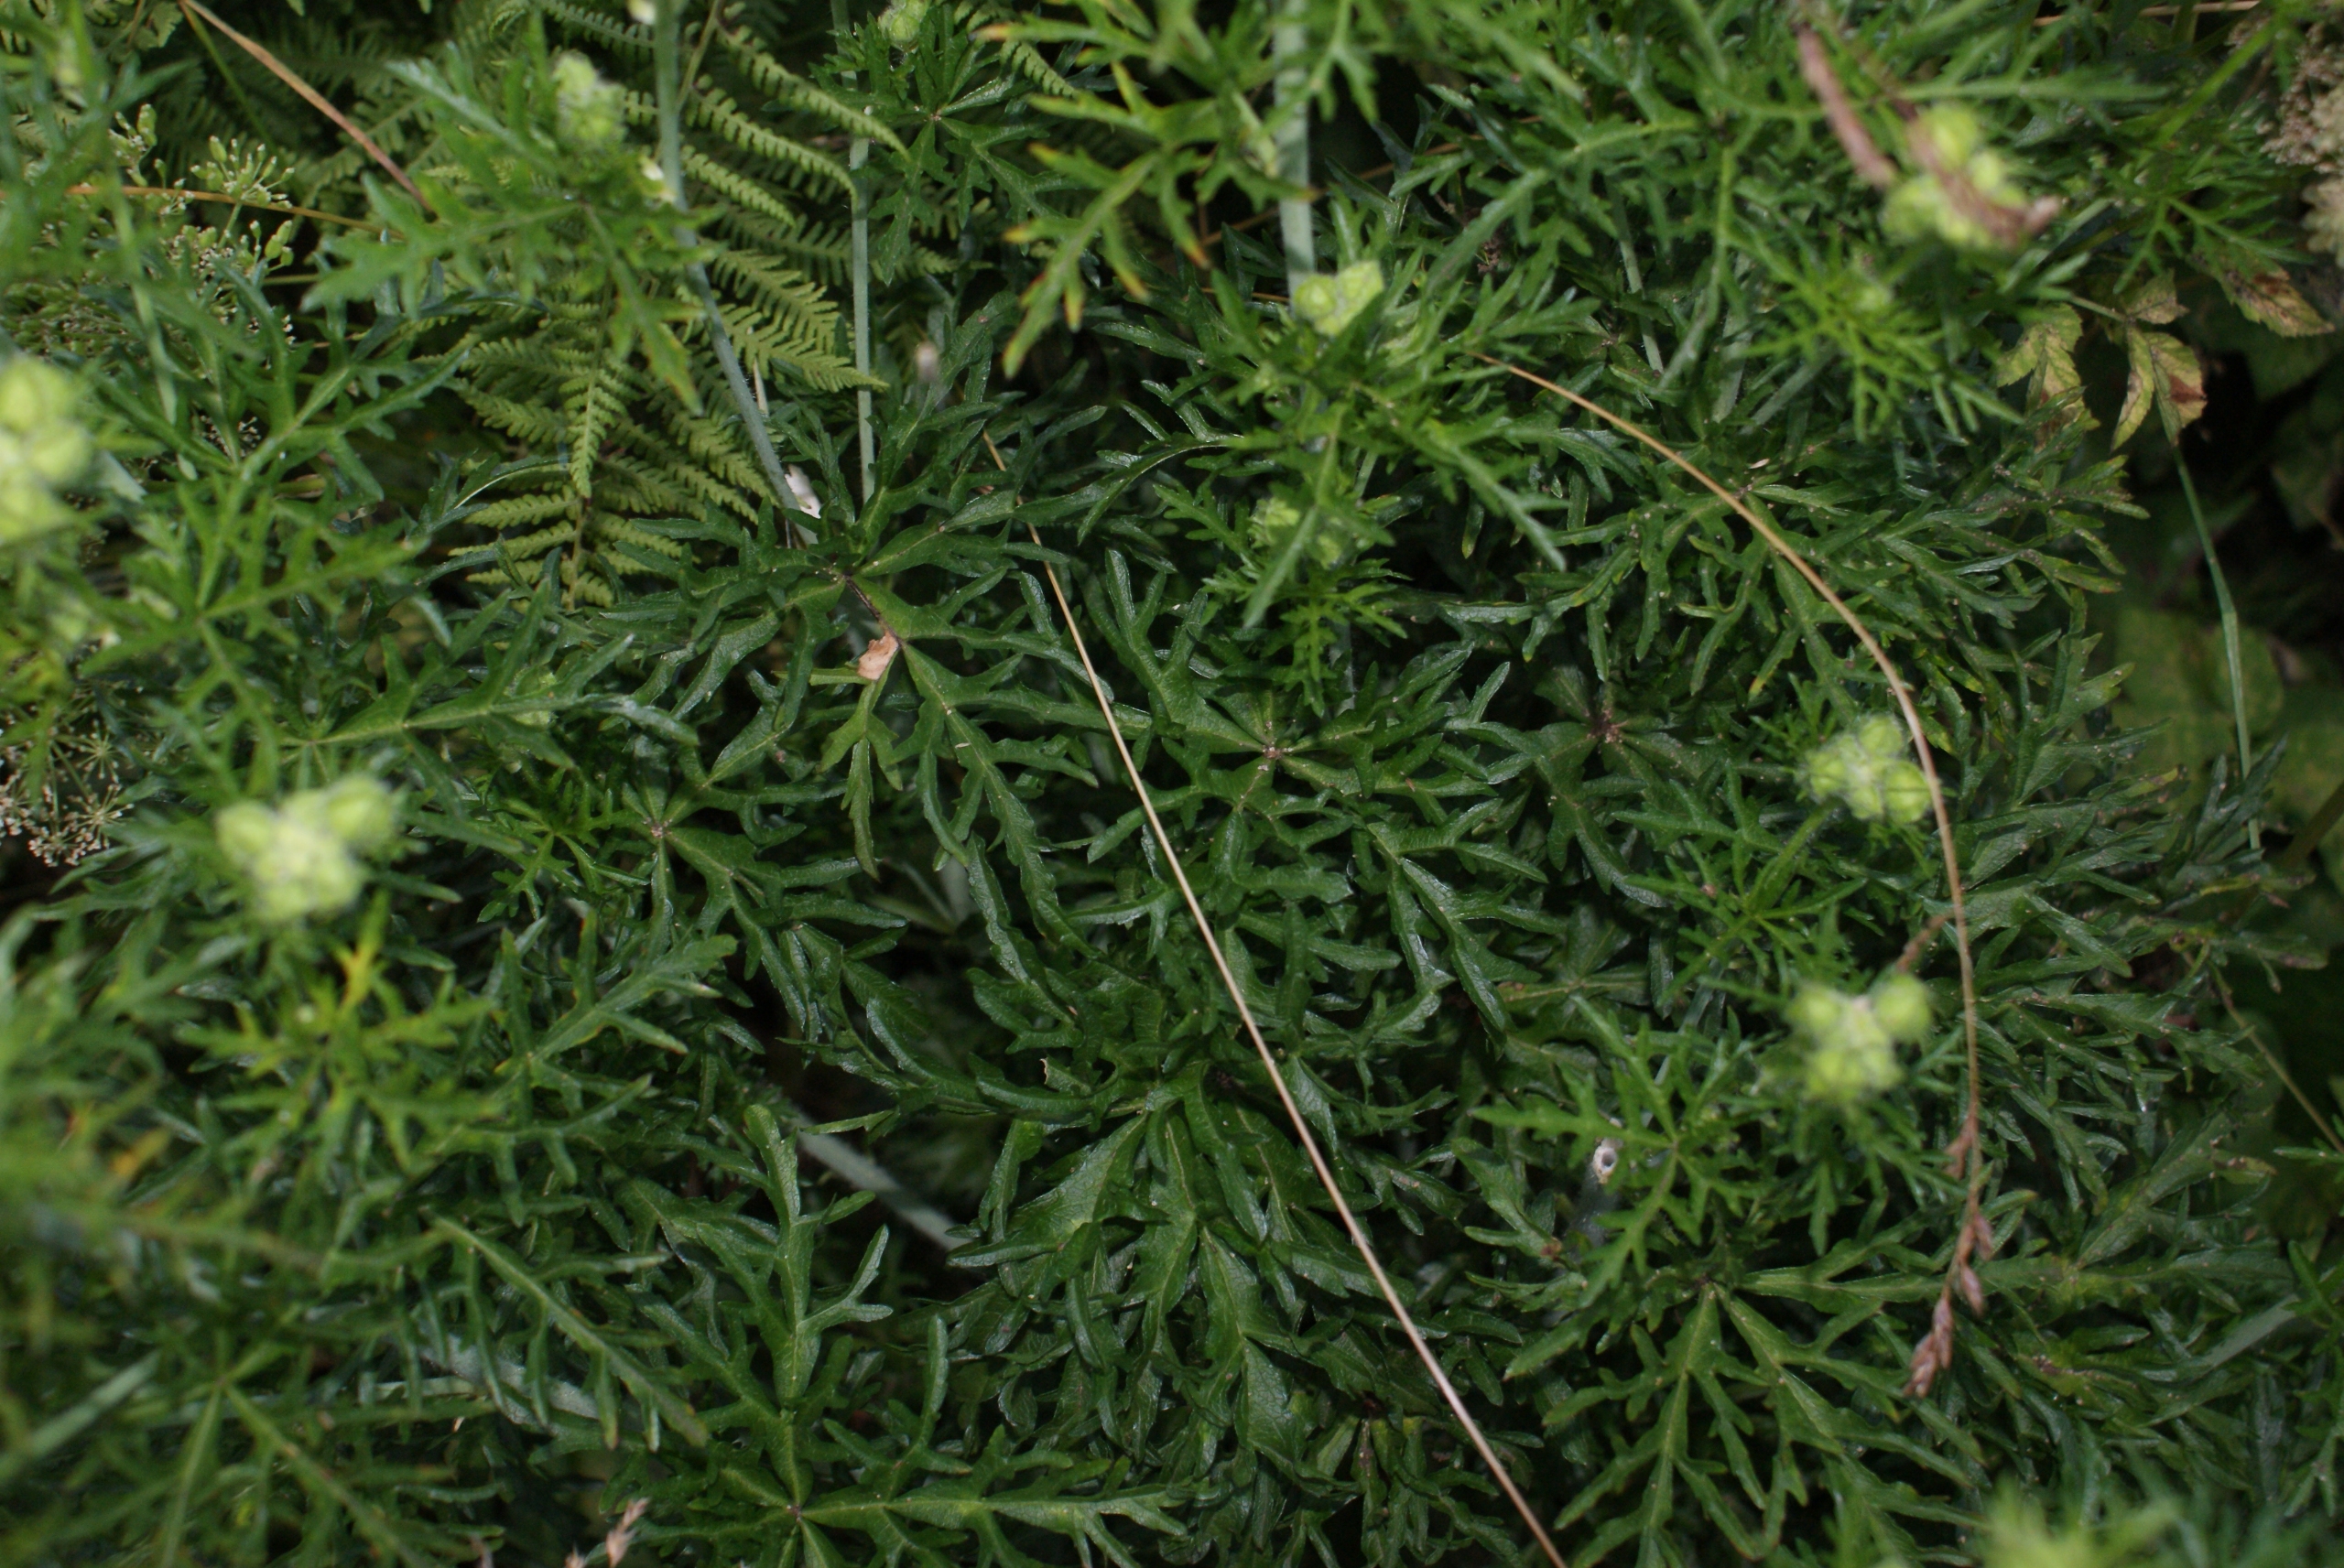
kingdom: Plantae
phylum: Tracheophyta
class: Magnoliopsida
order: Malvales
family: Malvaceae
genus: Malva
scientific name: Malva moschata
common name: Moskus-katost
